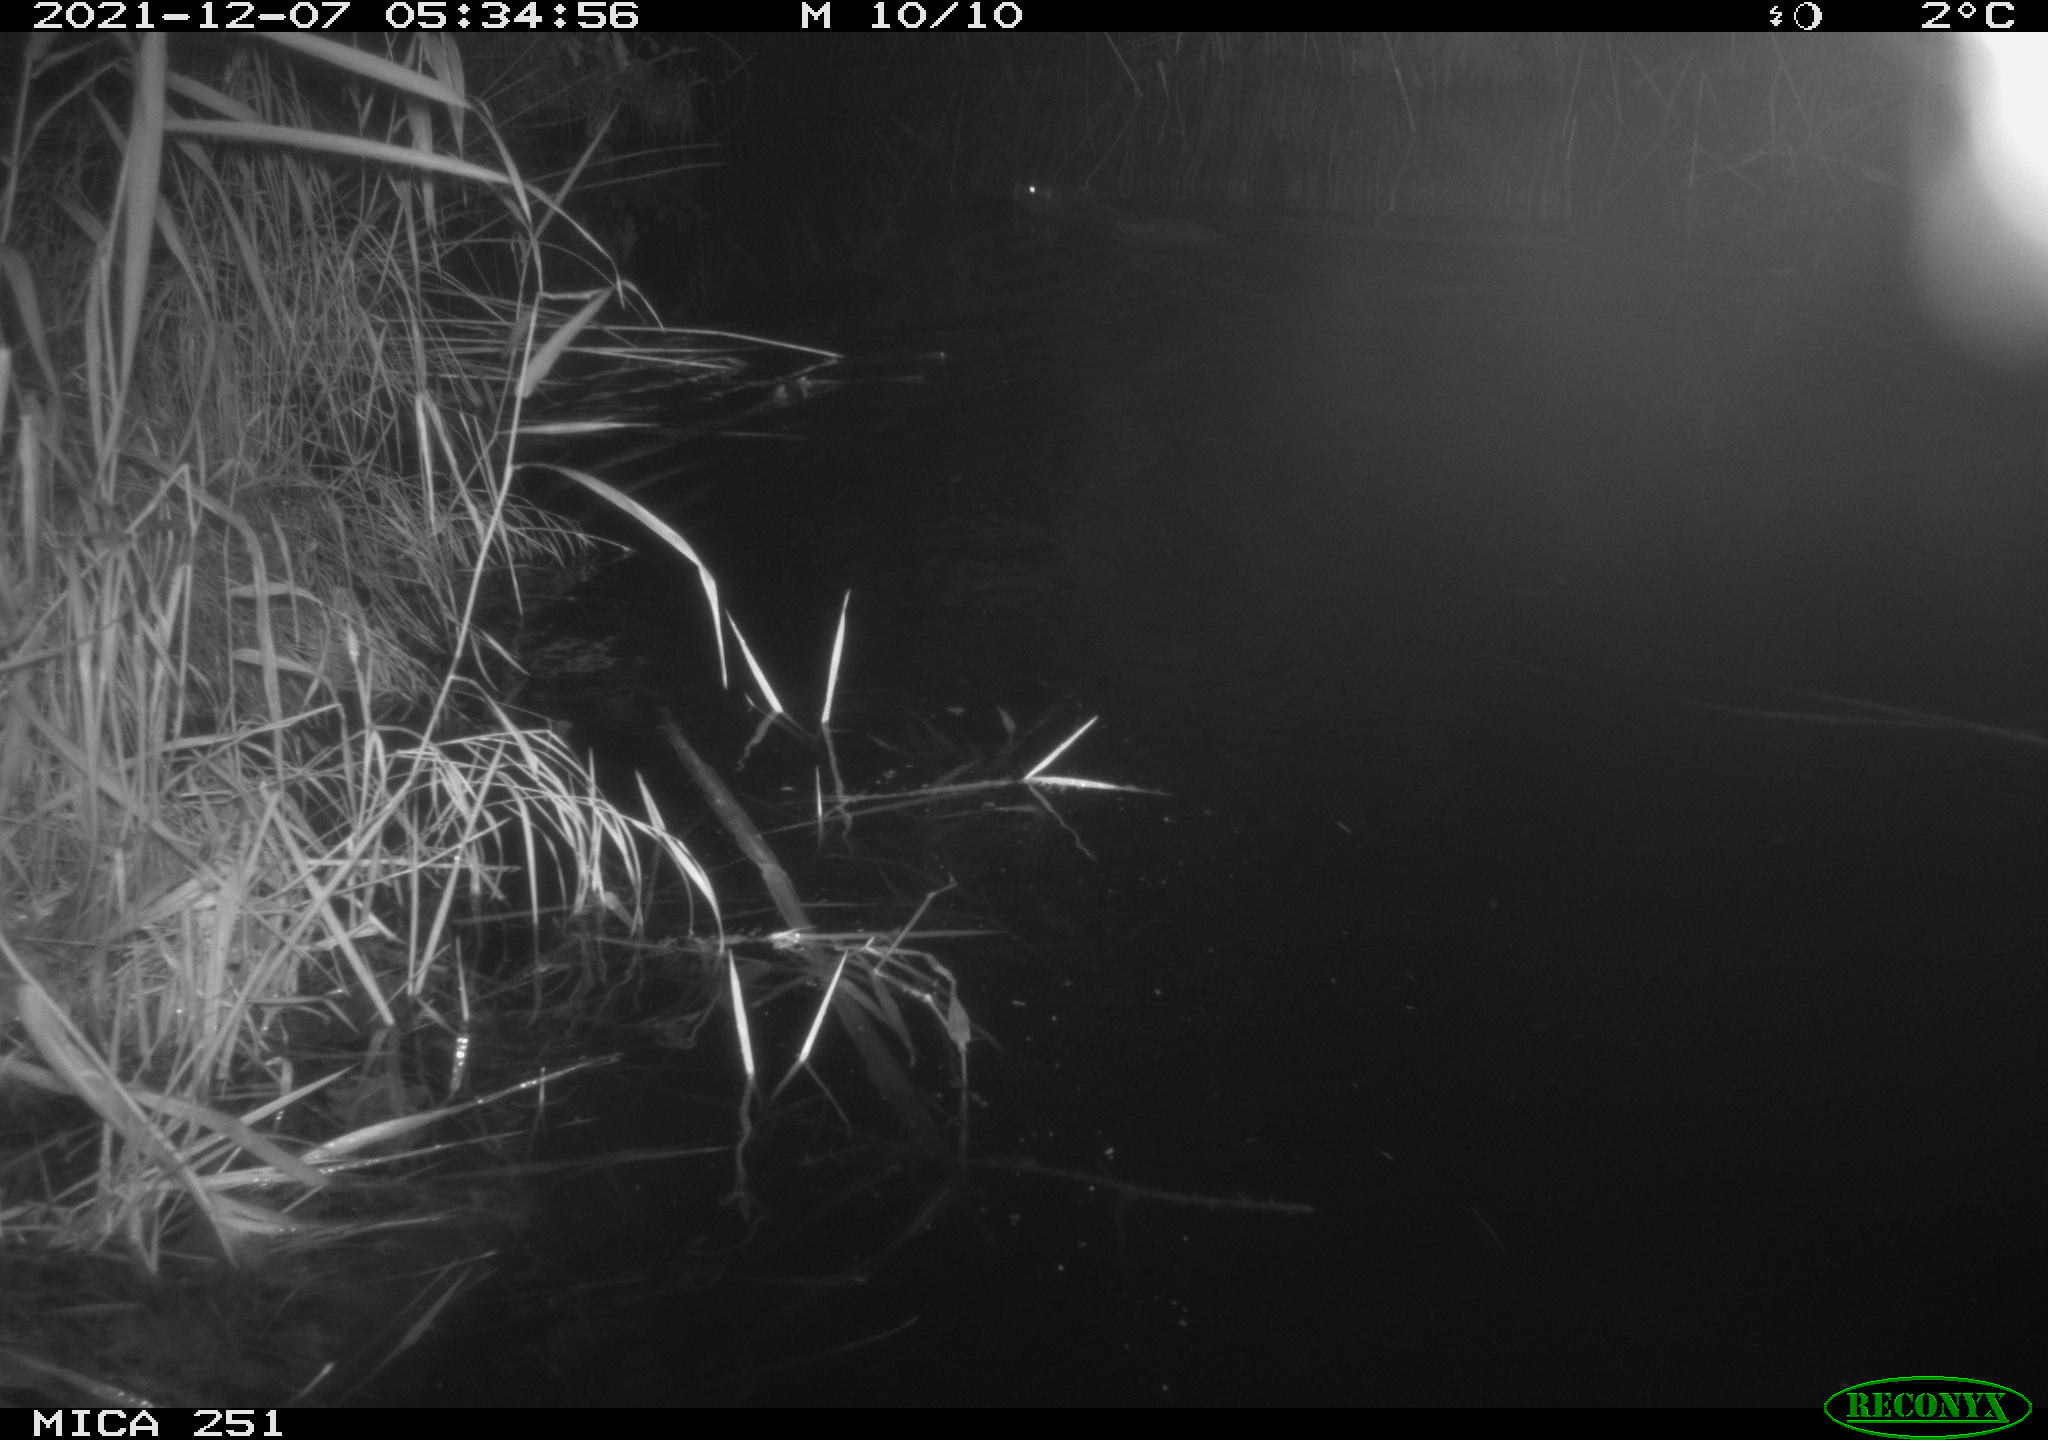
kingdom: Animalia
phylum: Chordata
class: Mammalia
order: Rodentia
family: Myocastoridae
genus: Myocastor
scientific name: Myocastor coypus
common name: Coypu
